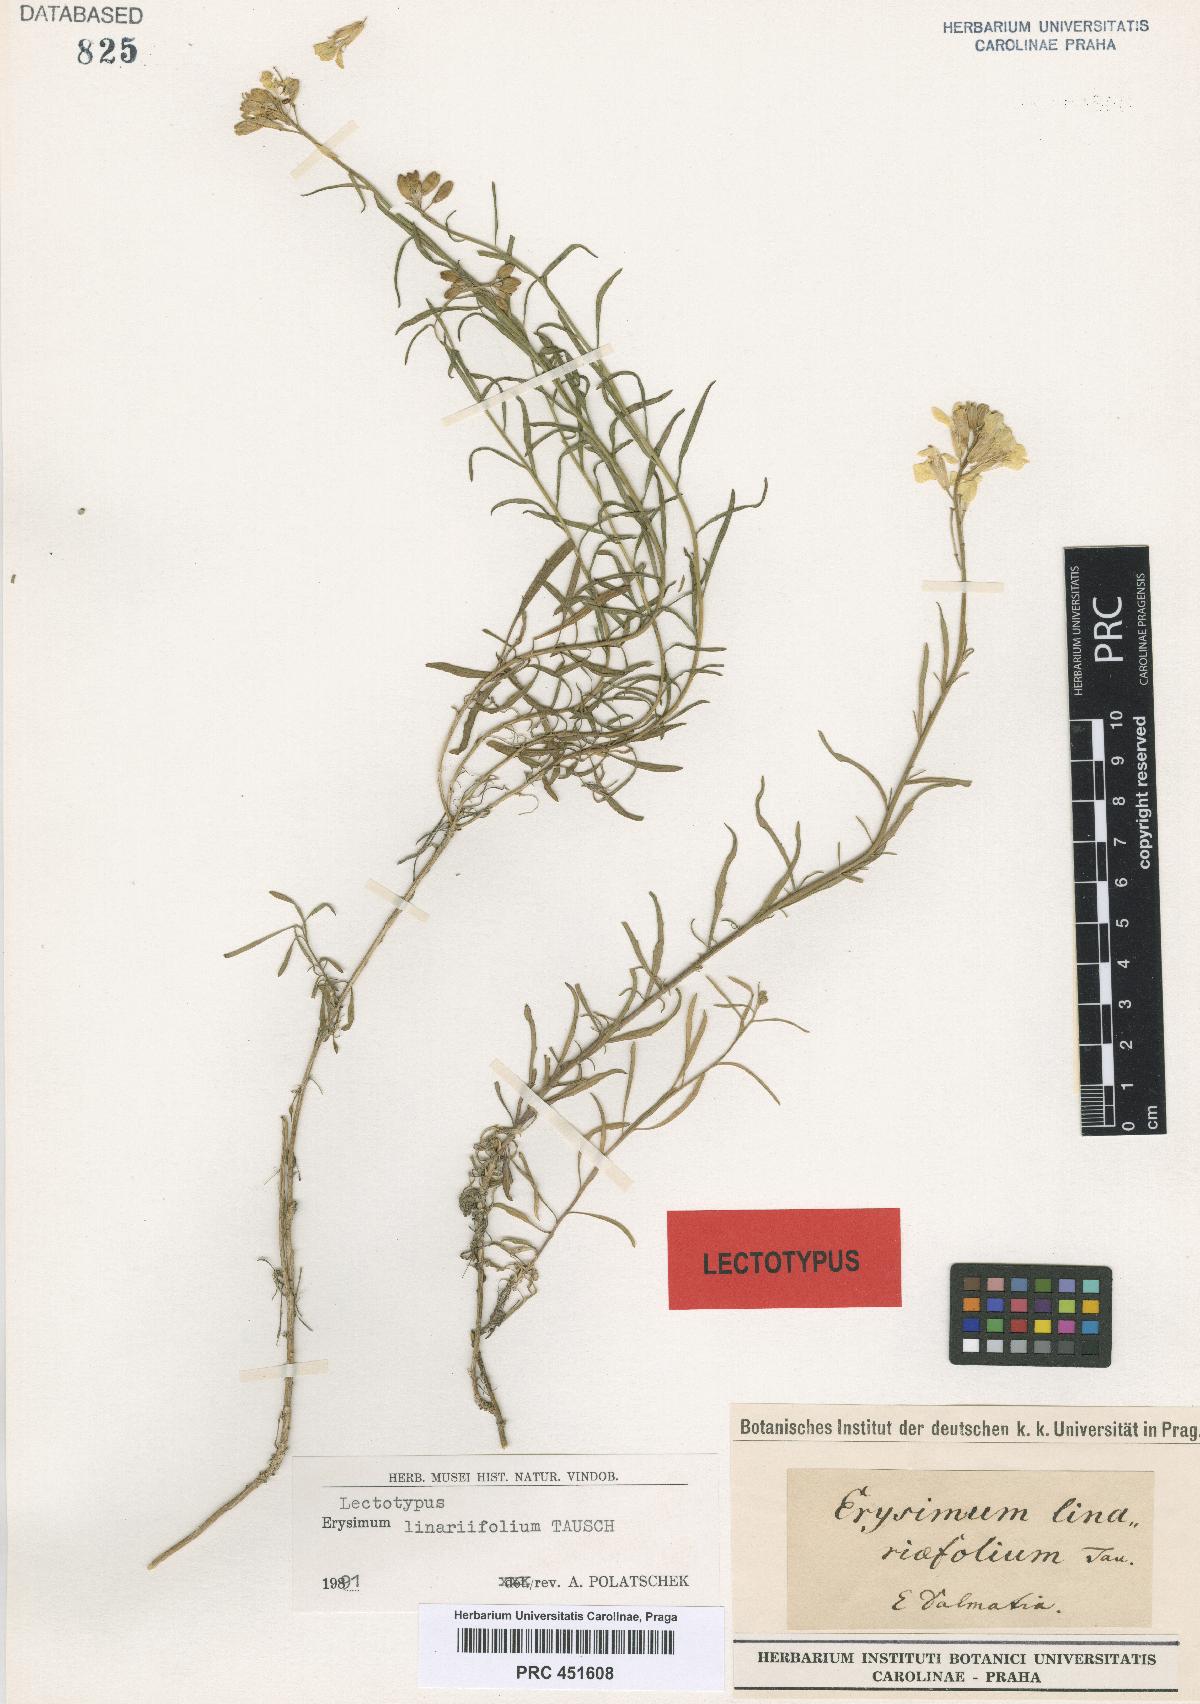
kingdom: Plantae
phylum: Tracheophyta
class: Magnoliopsida
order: Brassicales
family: Brassicaceae
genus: Erysimum
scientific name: Erysimum linariifolium
